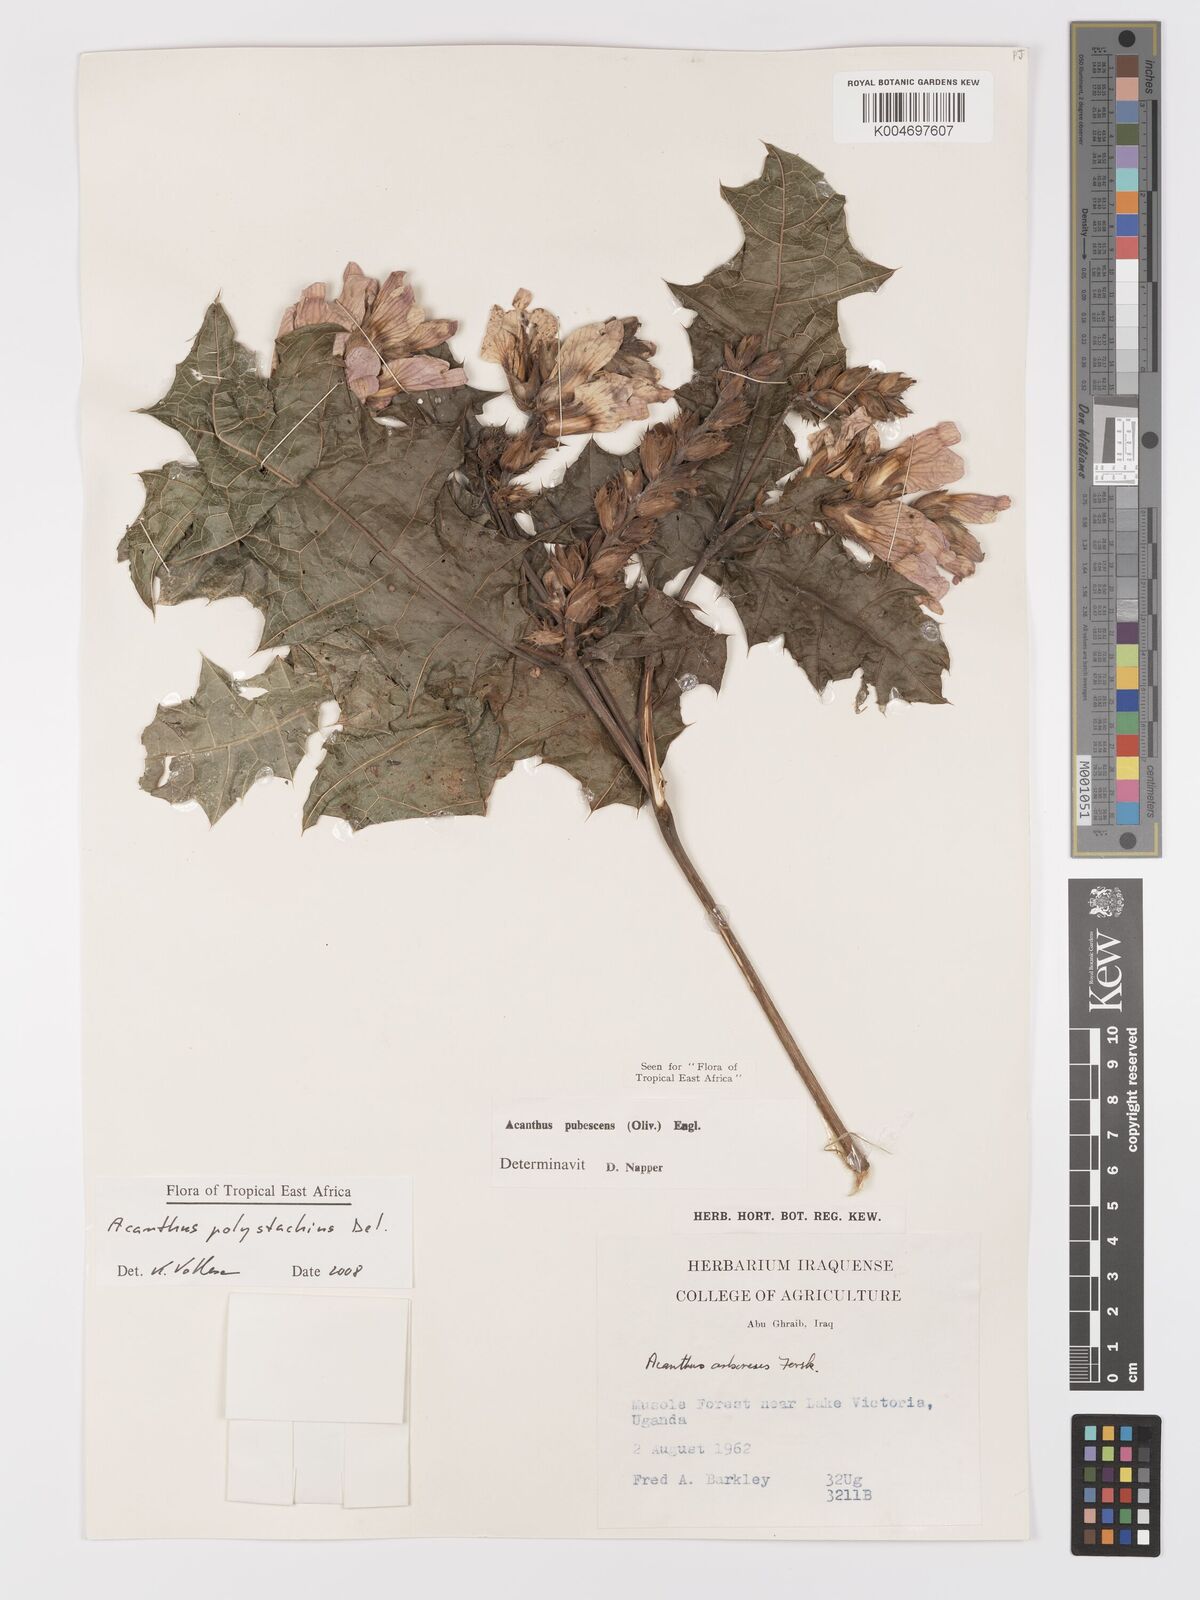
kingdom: Plantae
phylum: Tracheophyta
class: Magnoliopsida
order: Lamiales
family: Acanthaceae
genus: Acanthus
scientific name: Acanthus polystachyus
